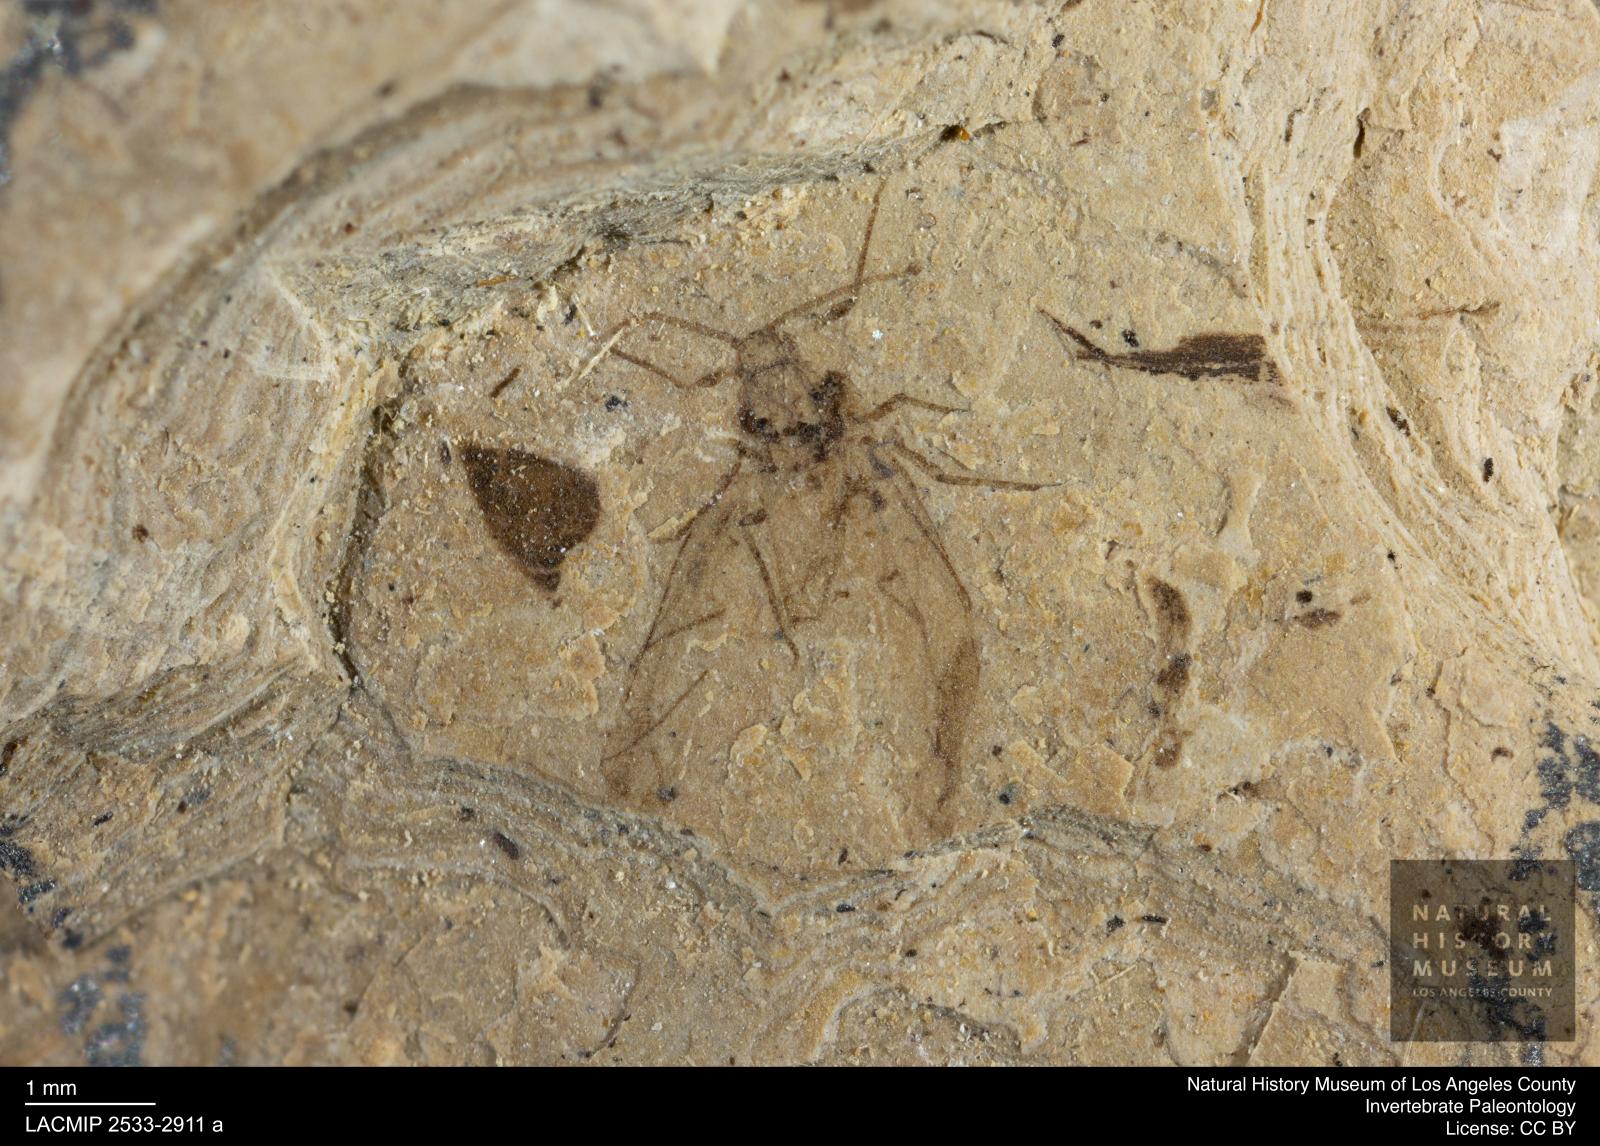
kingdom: Animalia
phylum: Arthropoda
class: Insecta
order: Hemiptera
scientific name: Hemiptera
